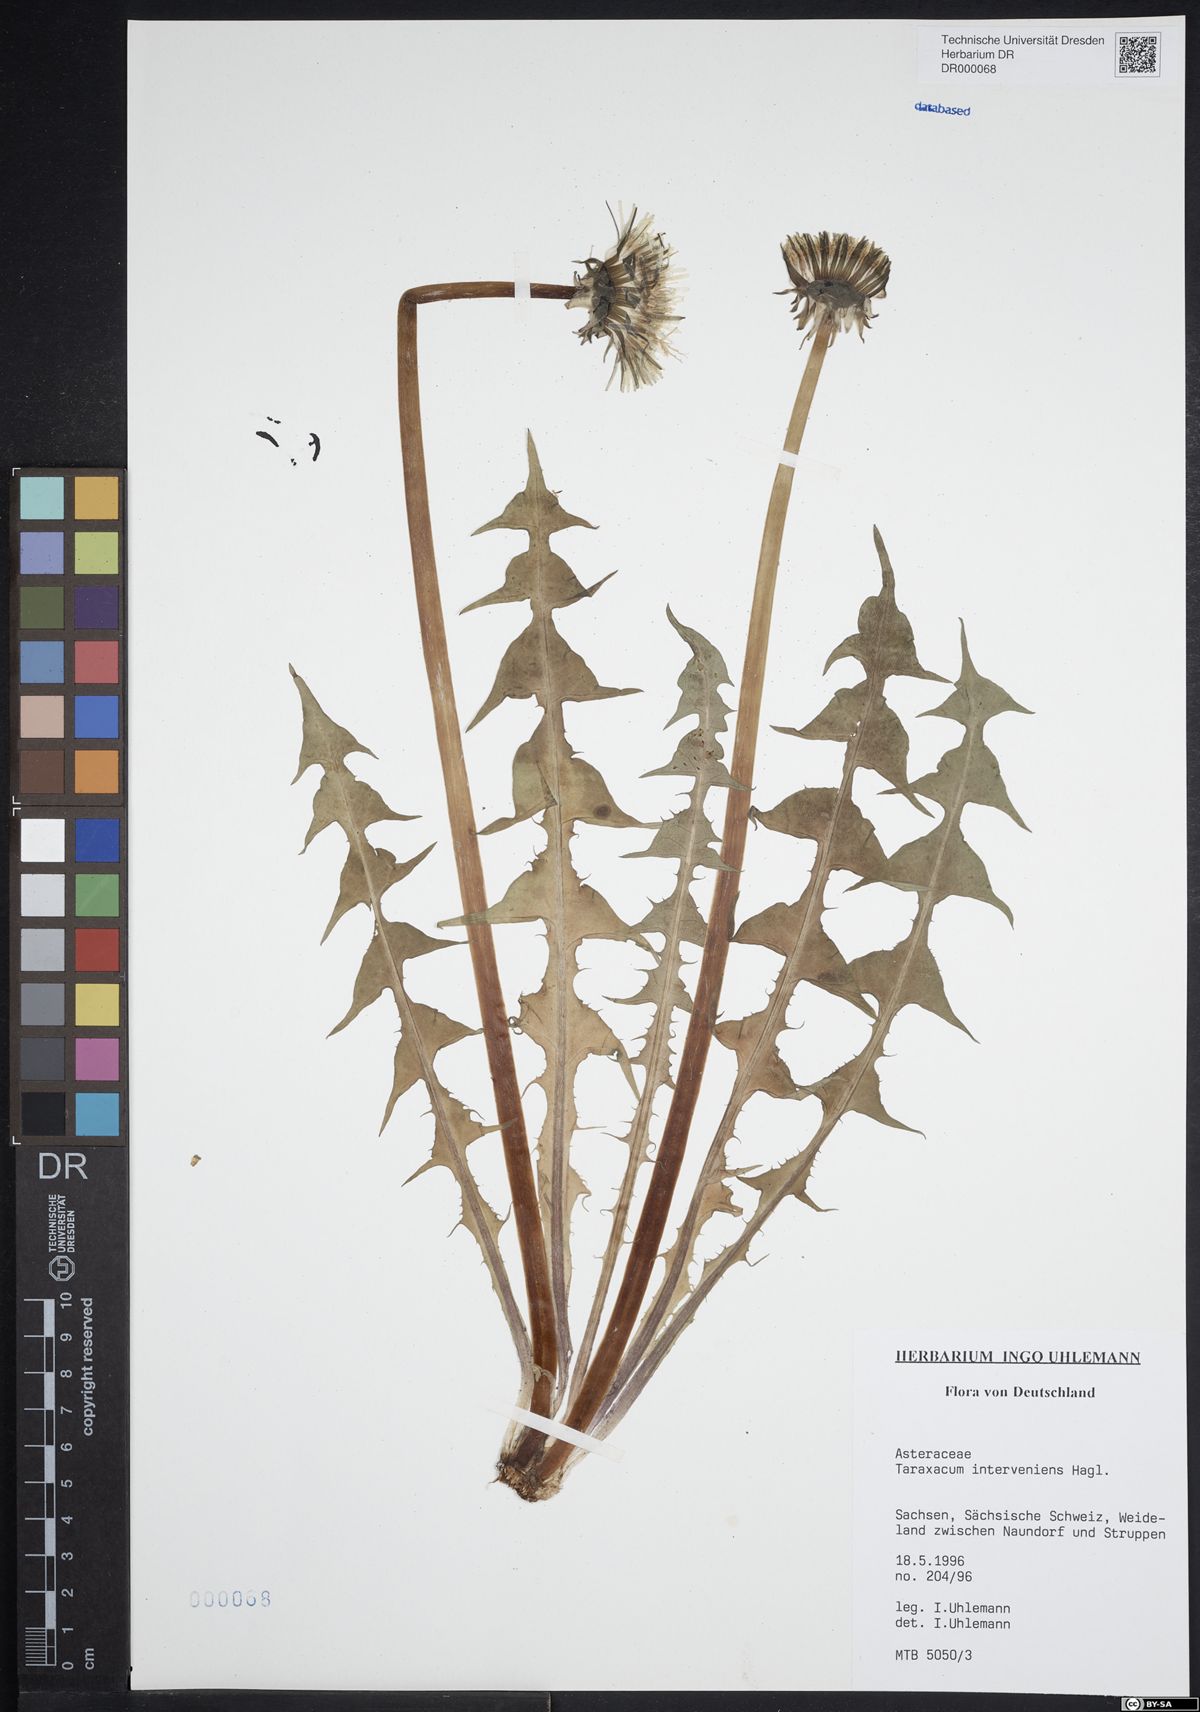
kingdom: Plantae
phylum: Tracheophyta
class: Magnoliopsida
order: Asterales
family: Asteraceae
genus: Taraxacum
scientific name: Taraxacum interveniens
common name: City dandelion
